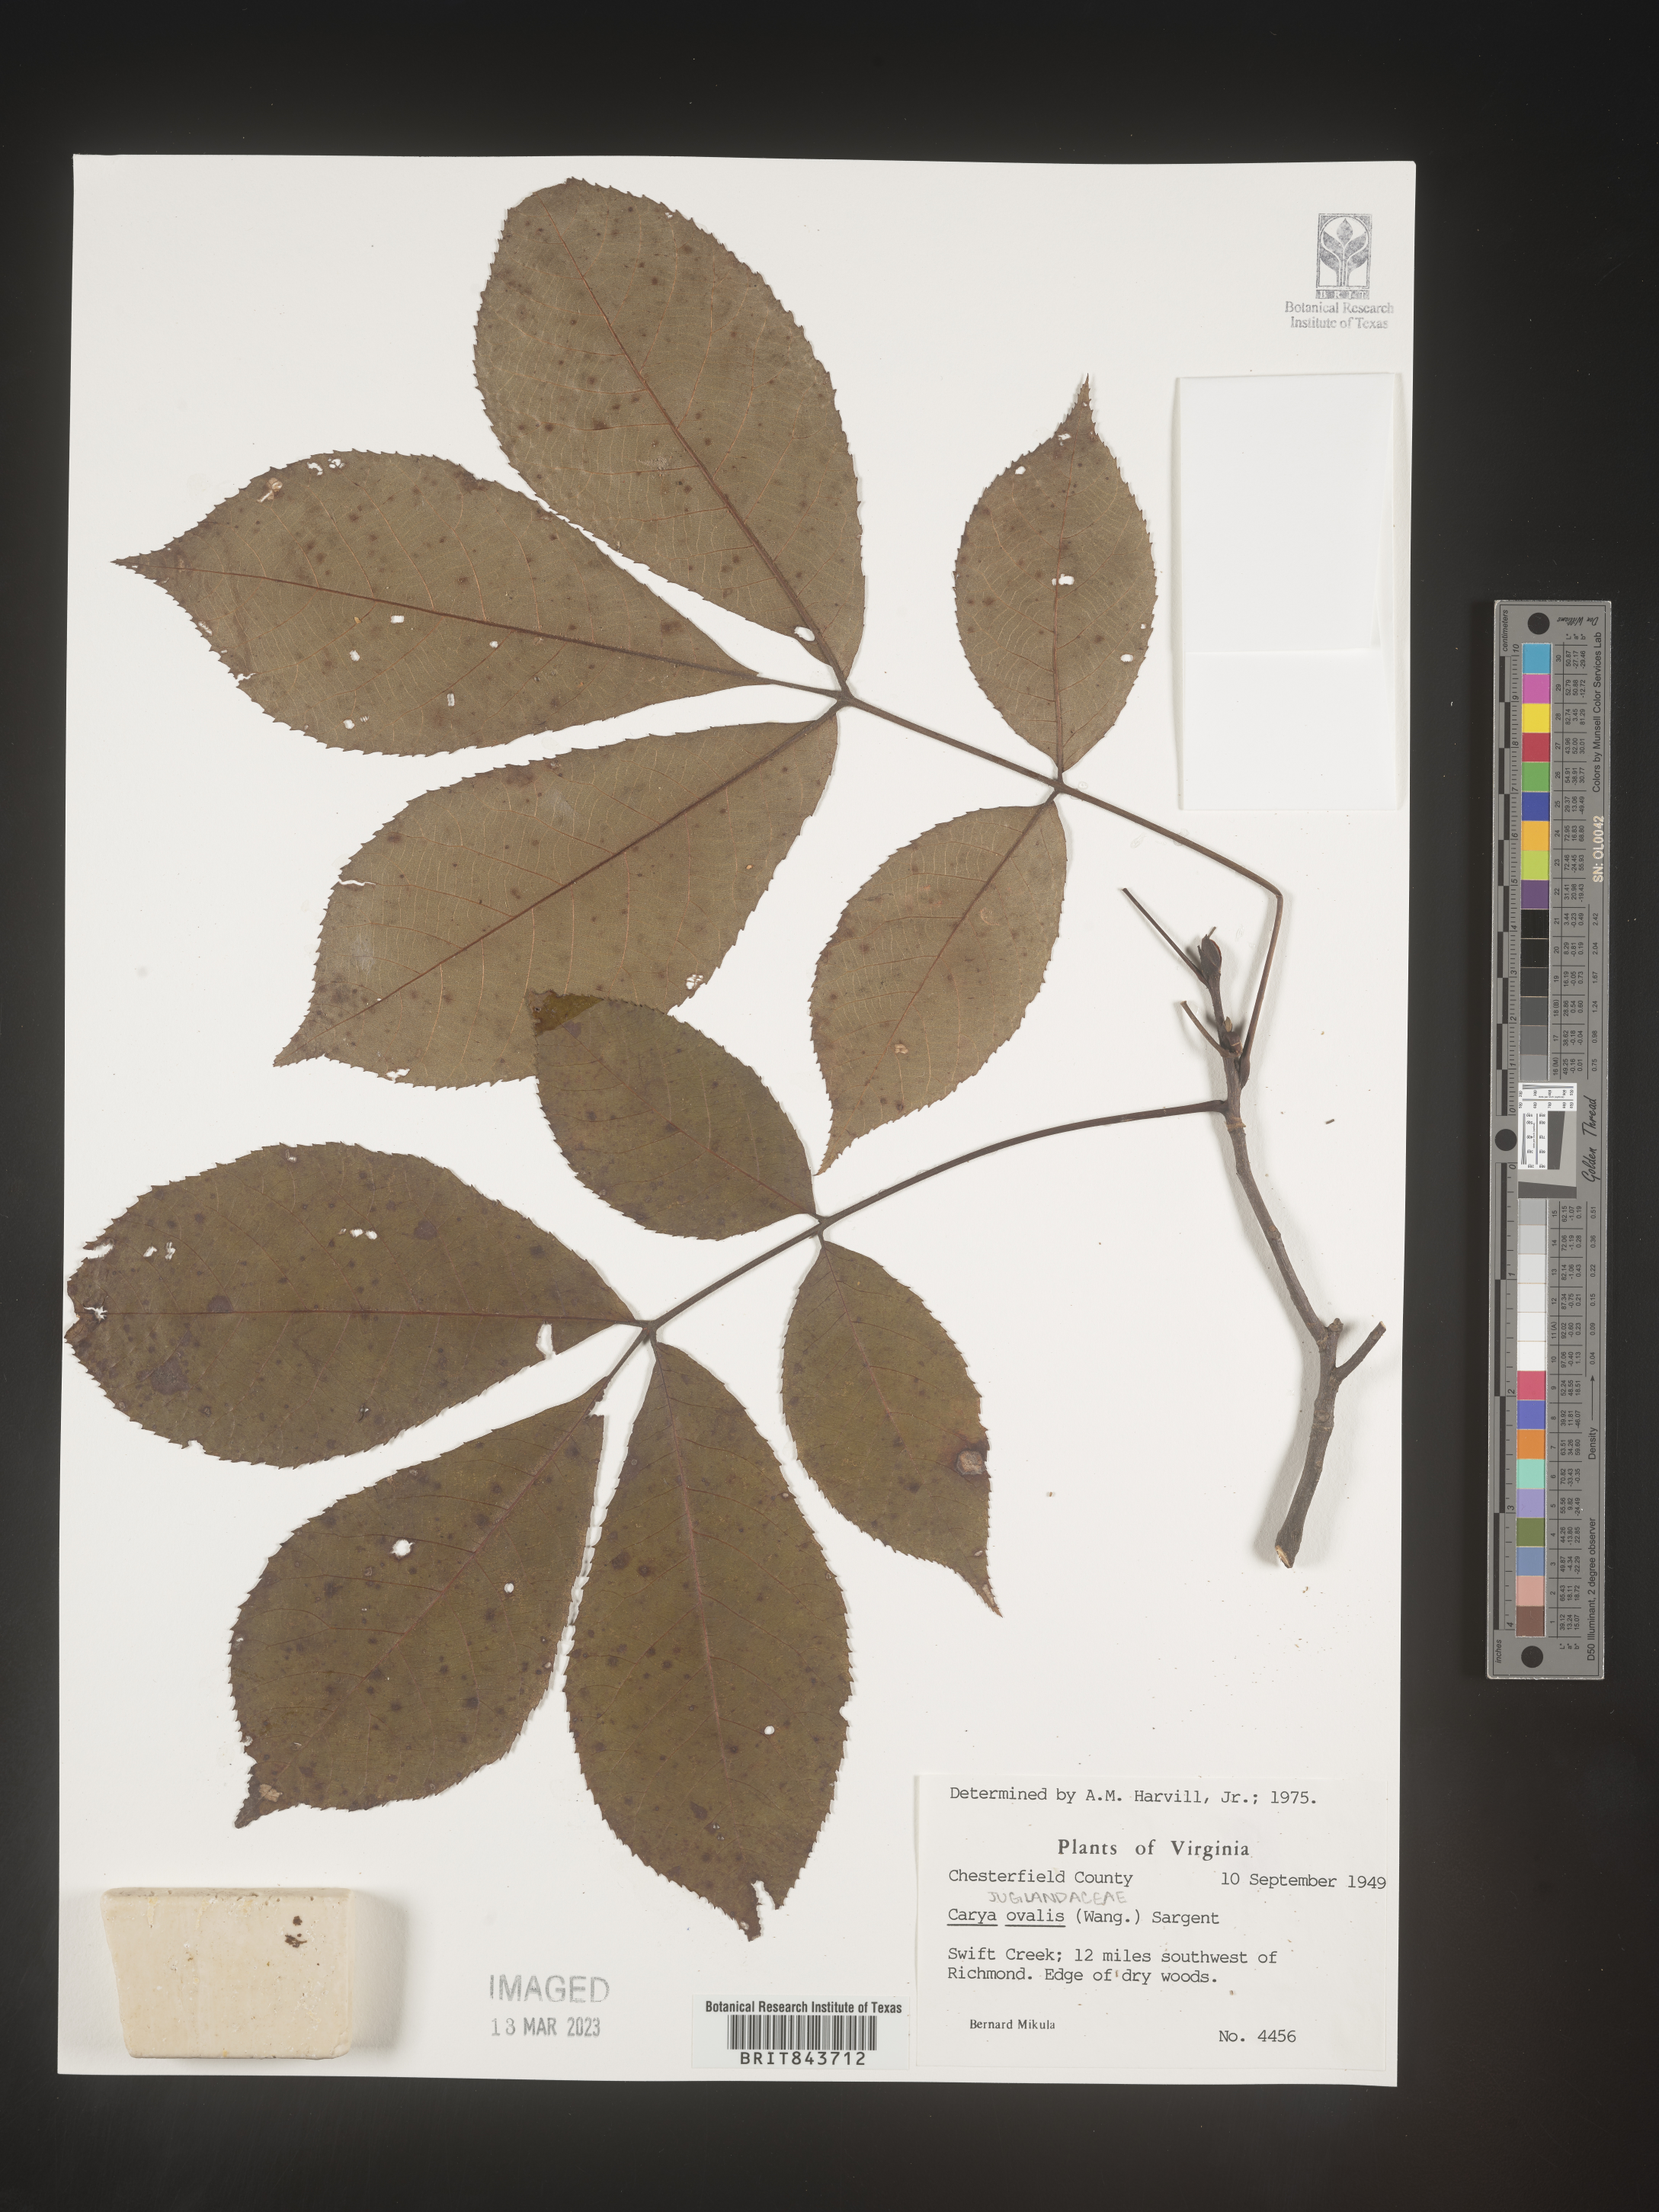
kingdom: Plantae
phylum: Tracheophyta
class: Magnoliopsida
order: Fagales
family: Juglandaceae
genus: Carya
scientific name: Carya ovalis
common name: False shagbark
